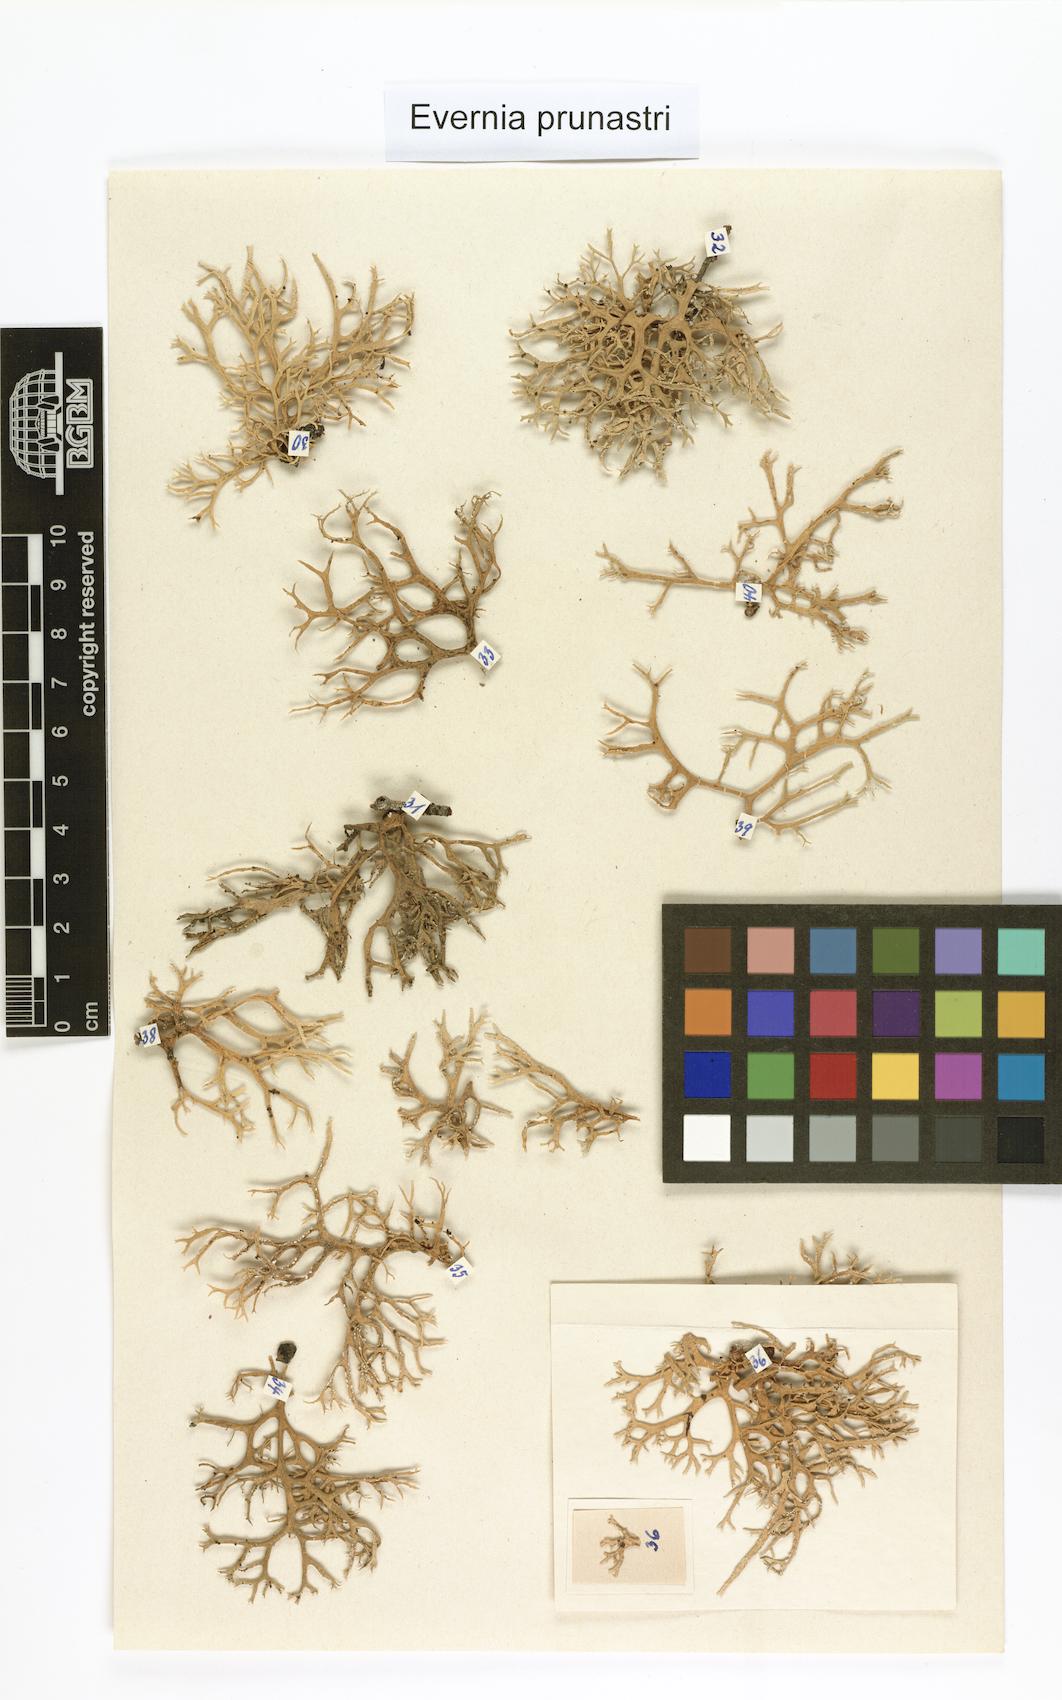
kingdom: Fungi
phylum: Ascomycota
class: Lecanoromycetes
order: Lecanorales
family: Parmeliaceae
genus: Evernia
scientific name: Evernia prunastri
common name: Oak moss
